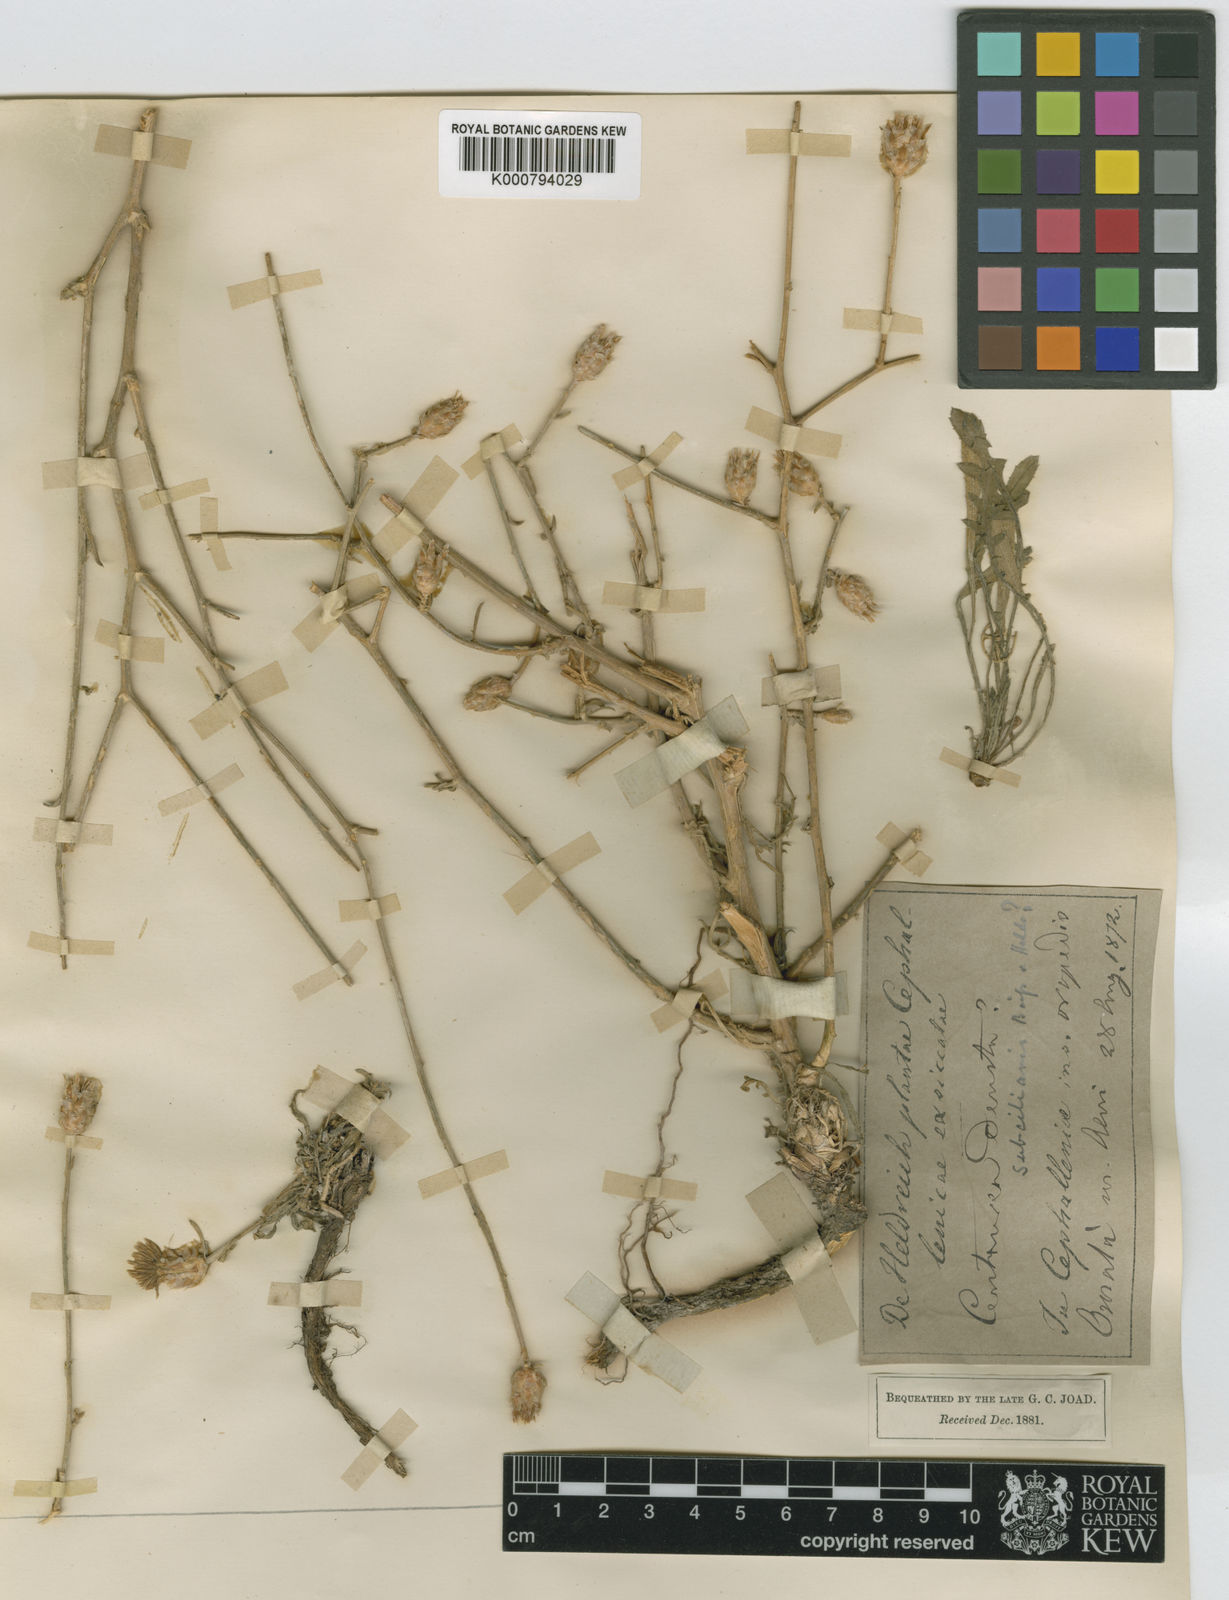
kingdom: Plantae
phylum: Tracheophyta
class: Magnoliopsida
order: Asterales
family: Asteraceae
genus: Centaurea
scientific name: Centaurea alba
